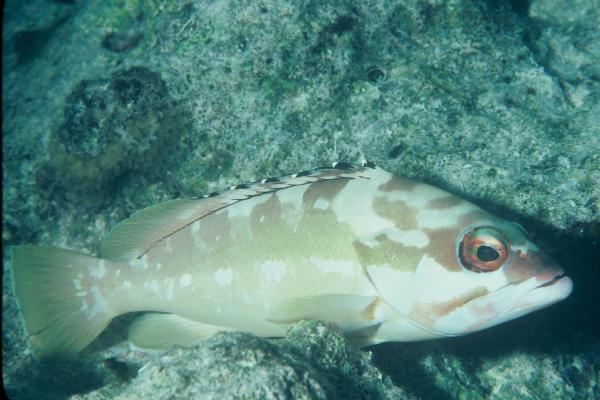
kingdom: Animalia
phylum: Chordata
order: Perciformes
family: Serranidae
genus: Epinephelus
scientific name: Epinephelus fasciatus
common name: Blacktip grouper
